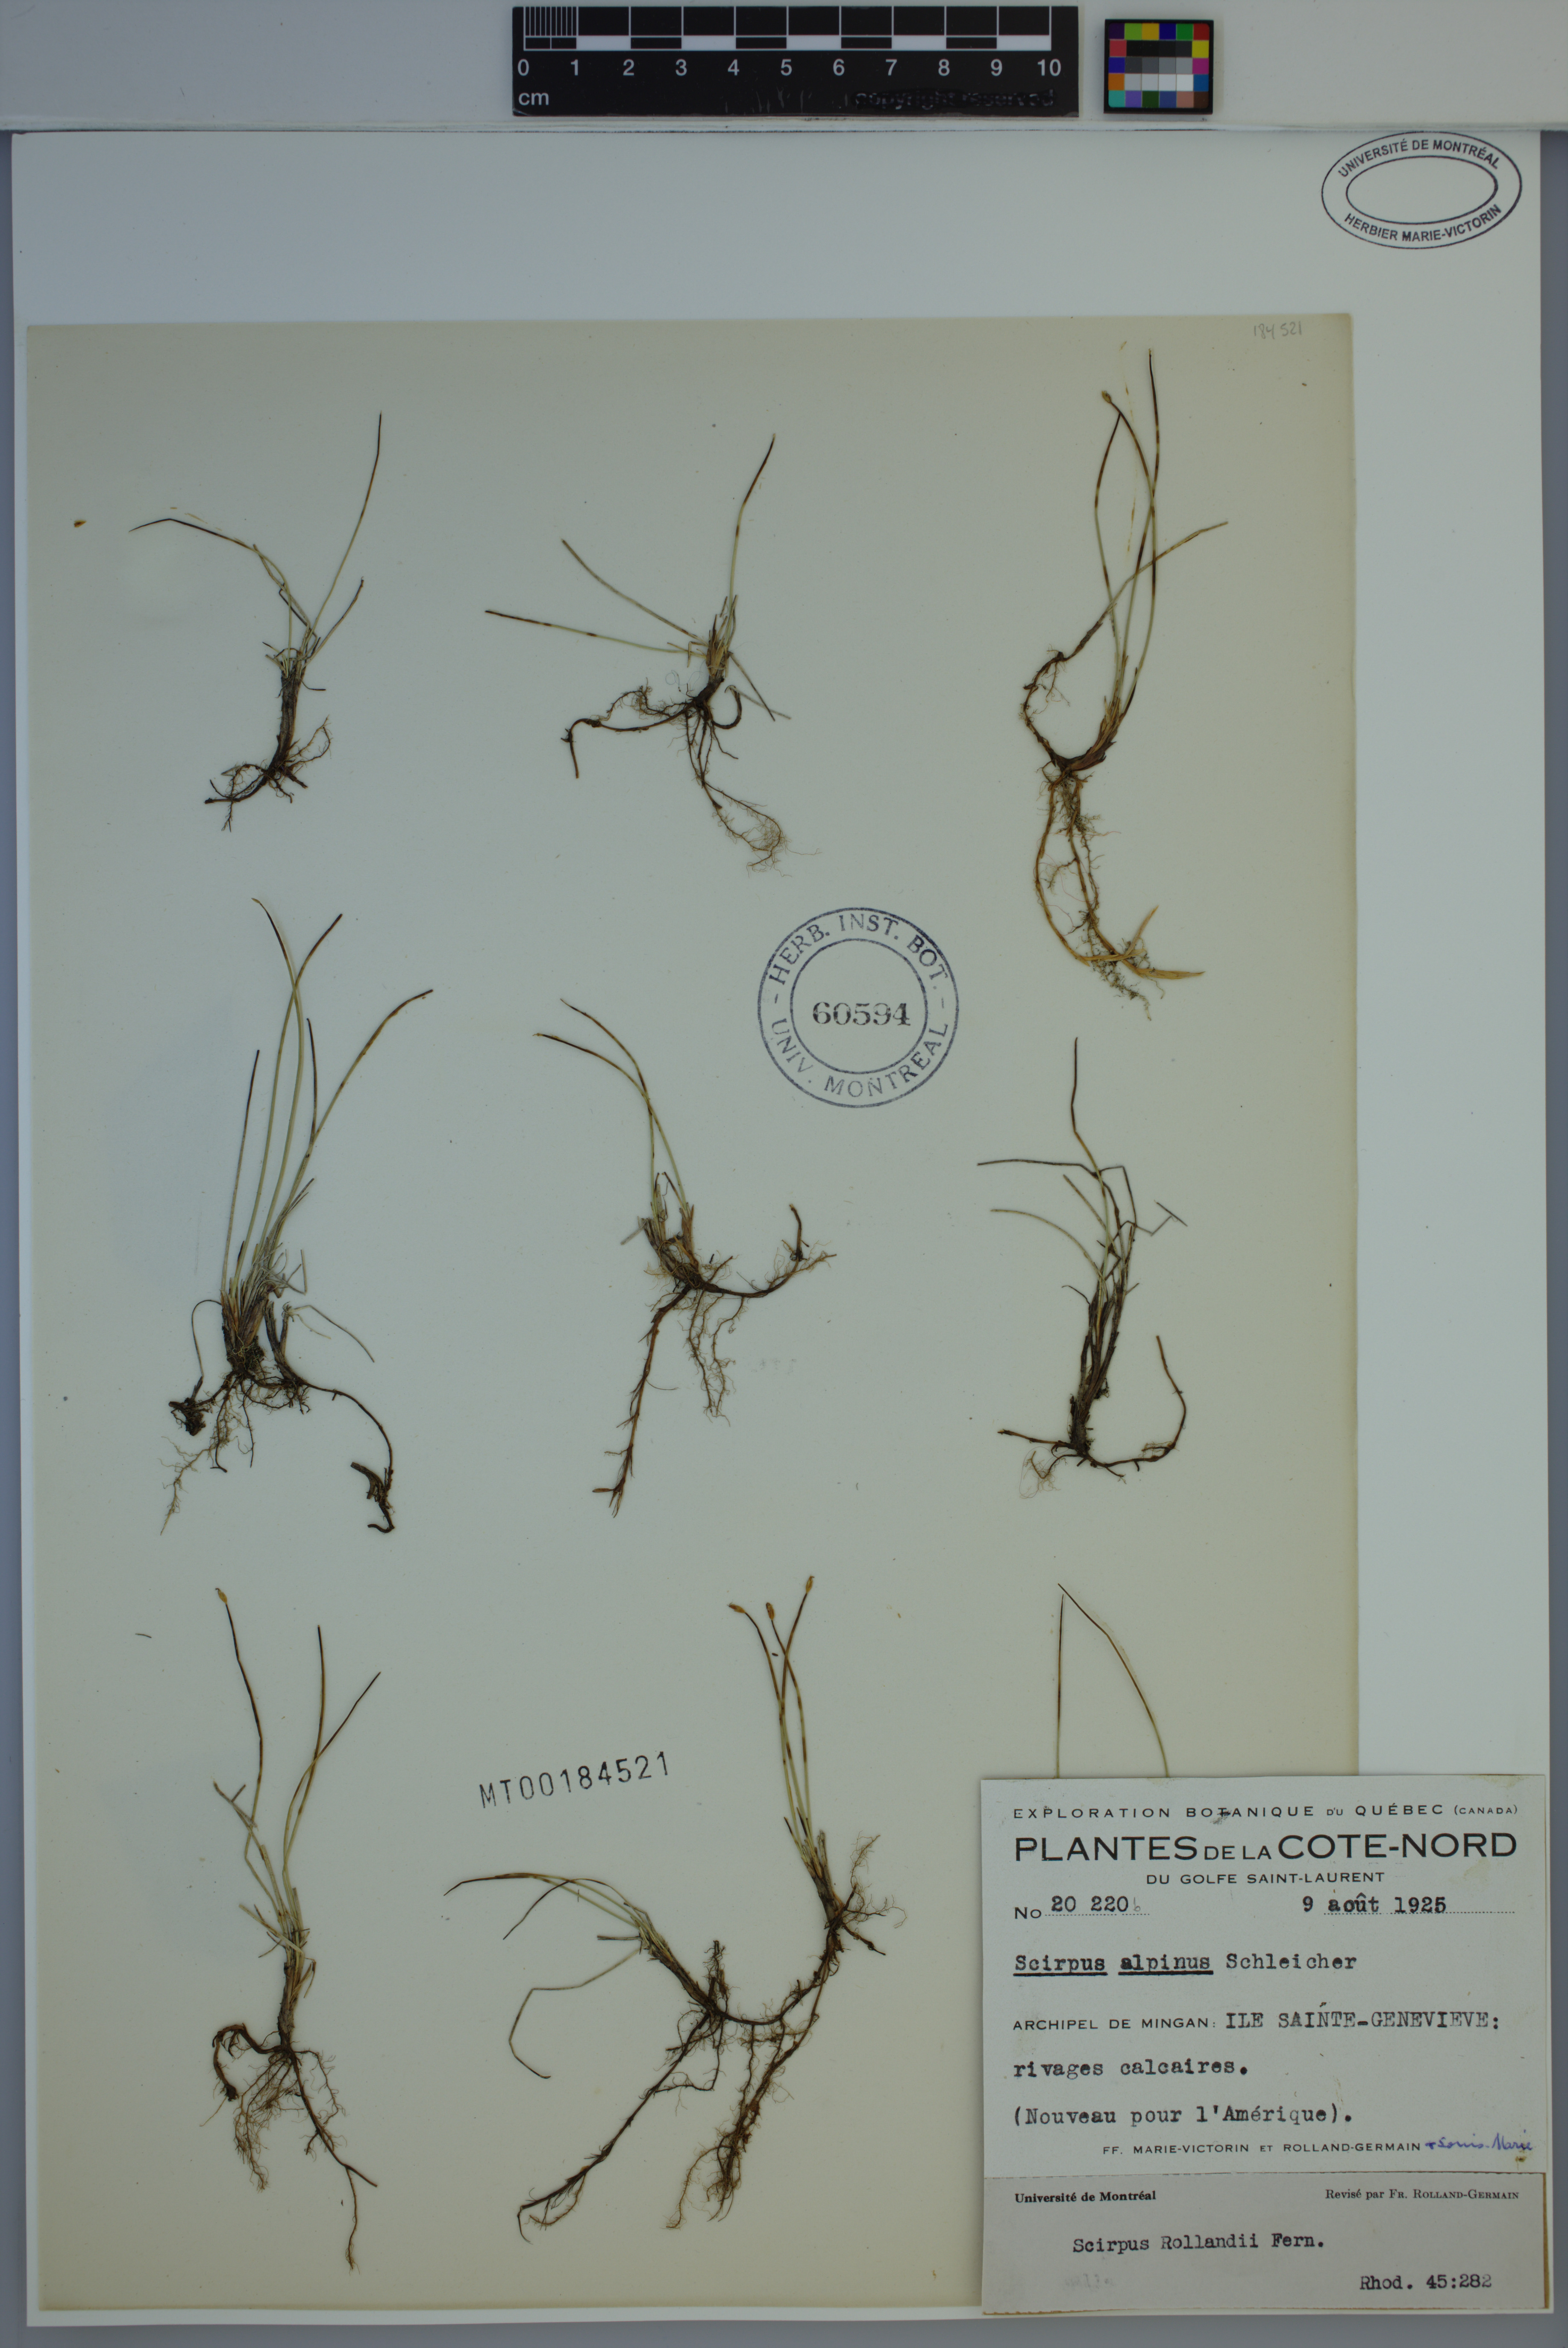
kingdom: Plantae
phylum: Tracheophyta
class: Liliopsida
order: Poales
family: Cyperaceae
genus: Trichophorum
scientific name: Trichophorum pumilum
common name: Rolland's bulrush
